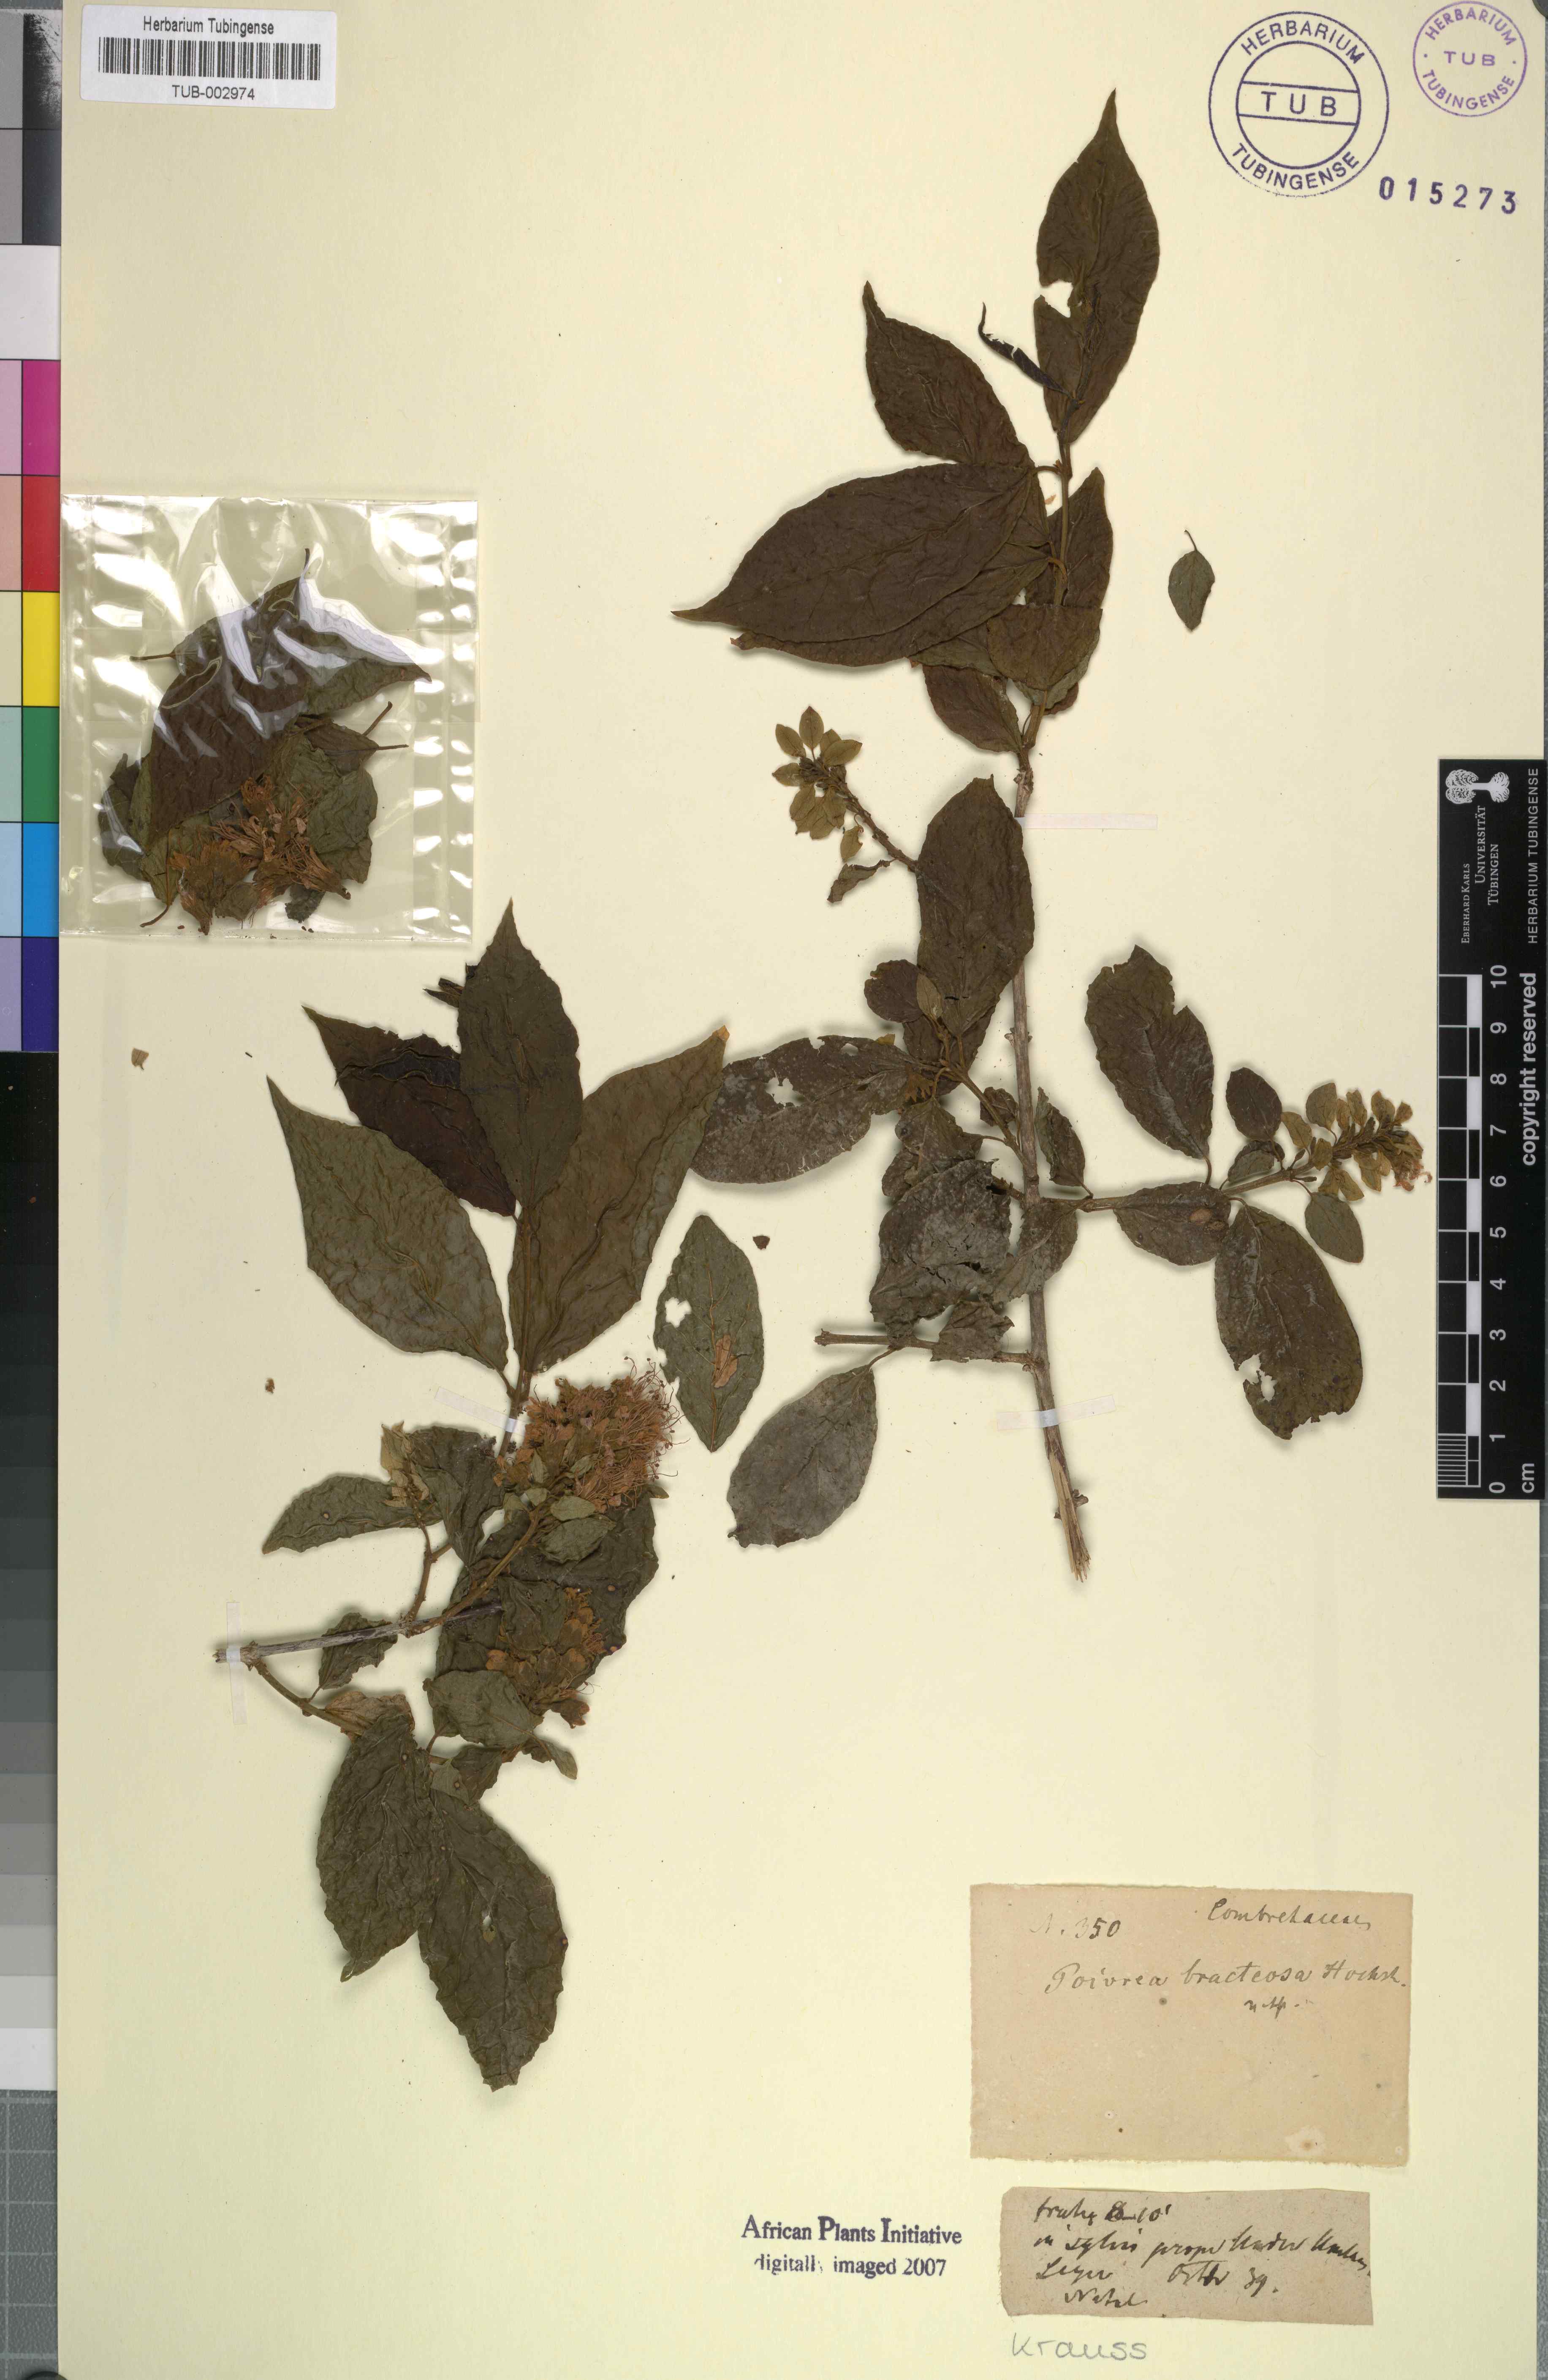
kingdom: Plantae
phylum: Tracheophyta
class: Magnoliopsida
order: Myrtales
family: Combretaceae
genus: Combretum
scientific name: Combretum aculeatum
